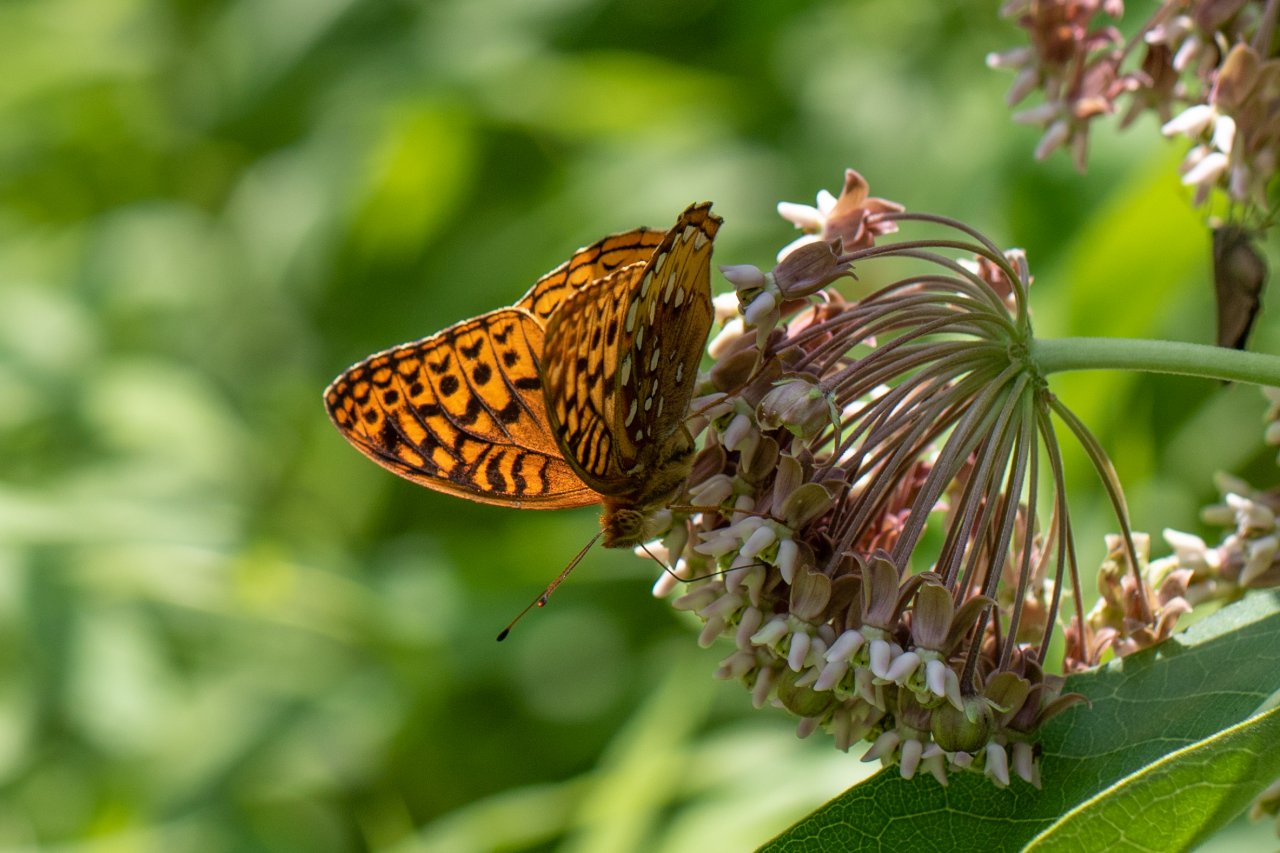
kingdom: Animalia
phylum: Arthropoda
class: Insecta
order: Lepidoptera
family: Nymphalidae
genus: Speyeria
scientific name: Speyeria cybele
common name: Great Spangled Fritillary
